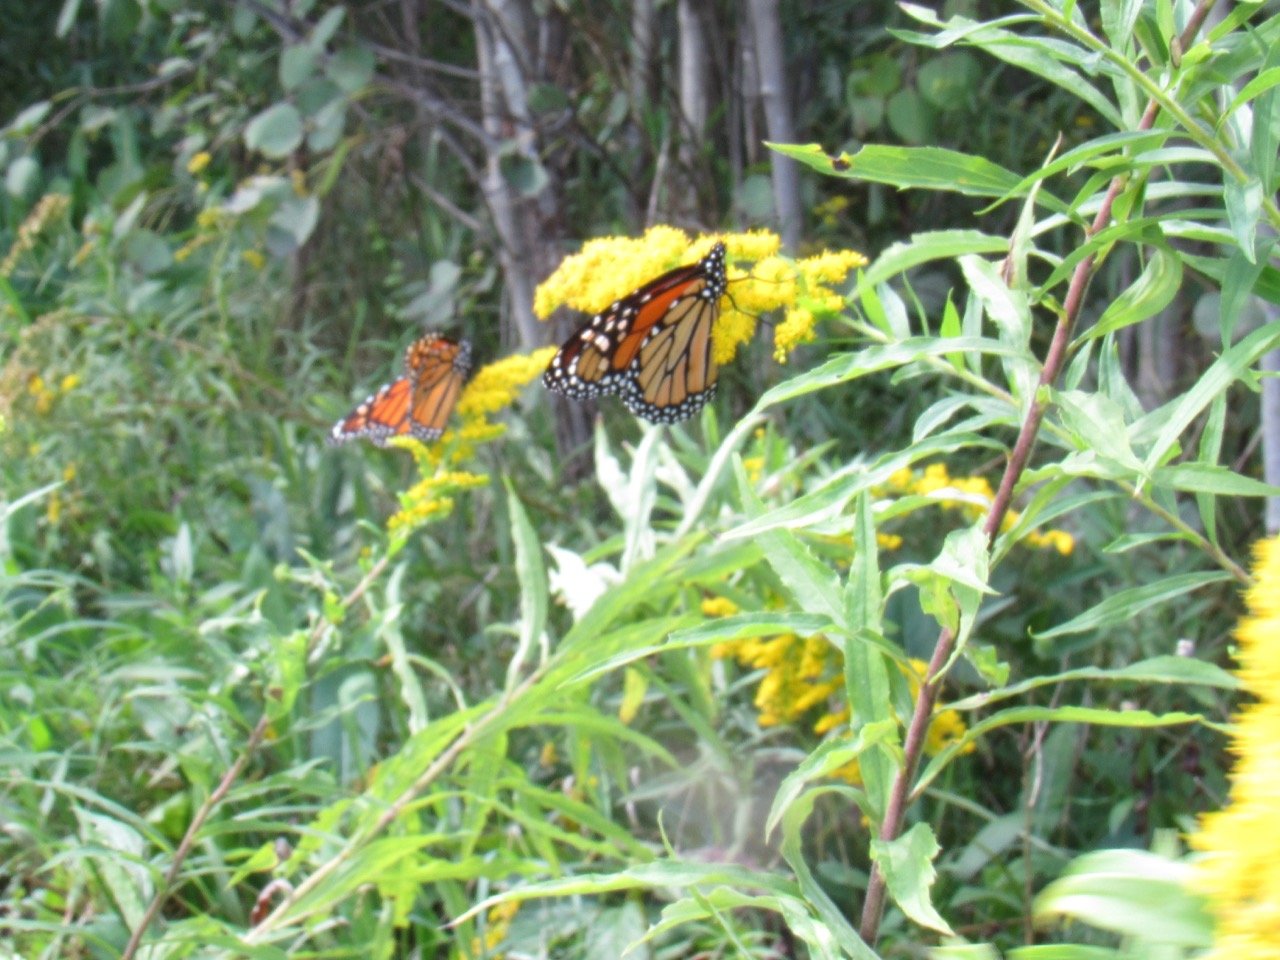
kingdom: Animalia
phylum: Arthropoda
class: Insecta
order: Lepidoptera
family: Nymphalidae
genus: Danaus
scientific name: Danaus plexippus
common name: Monarch
